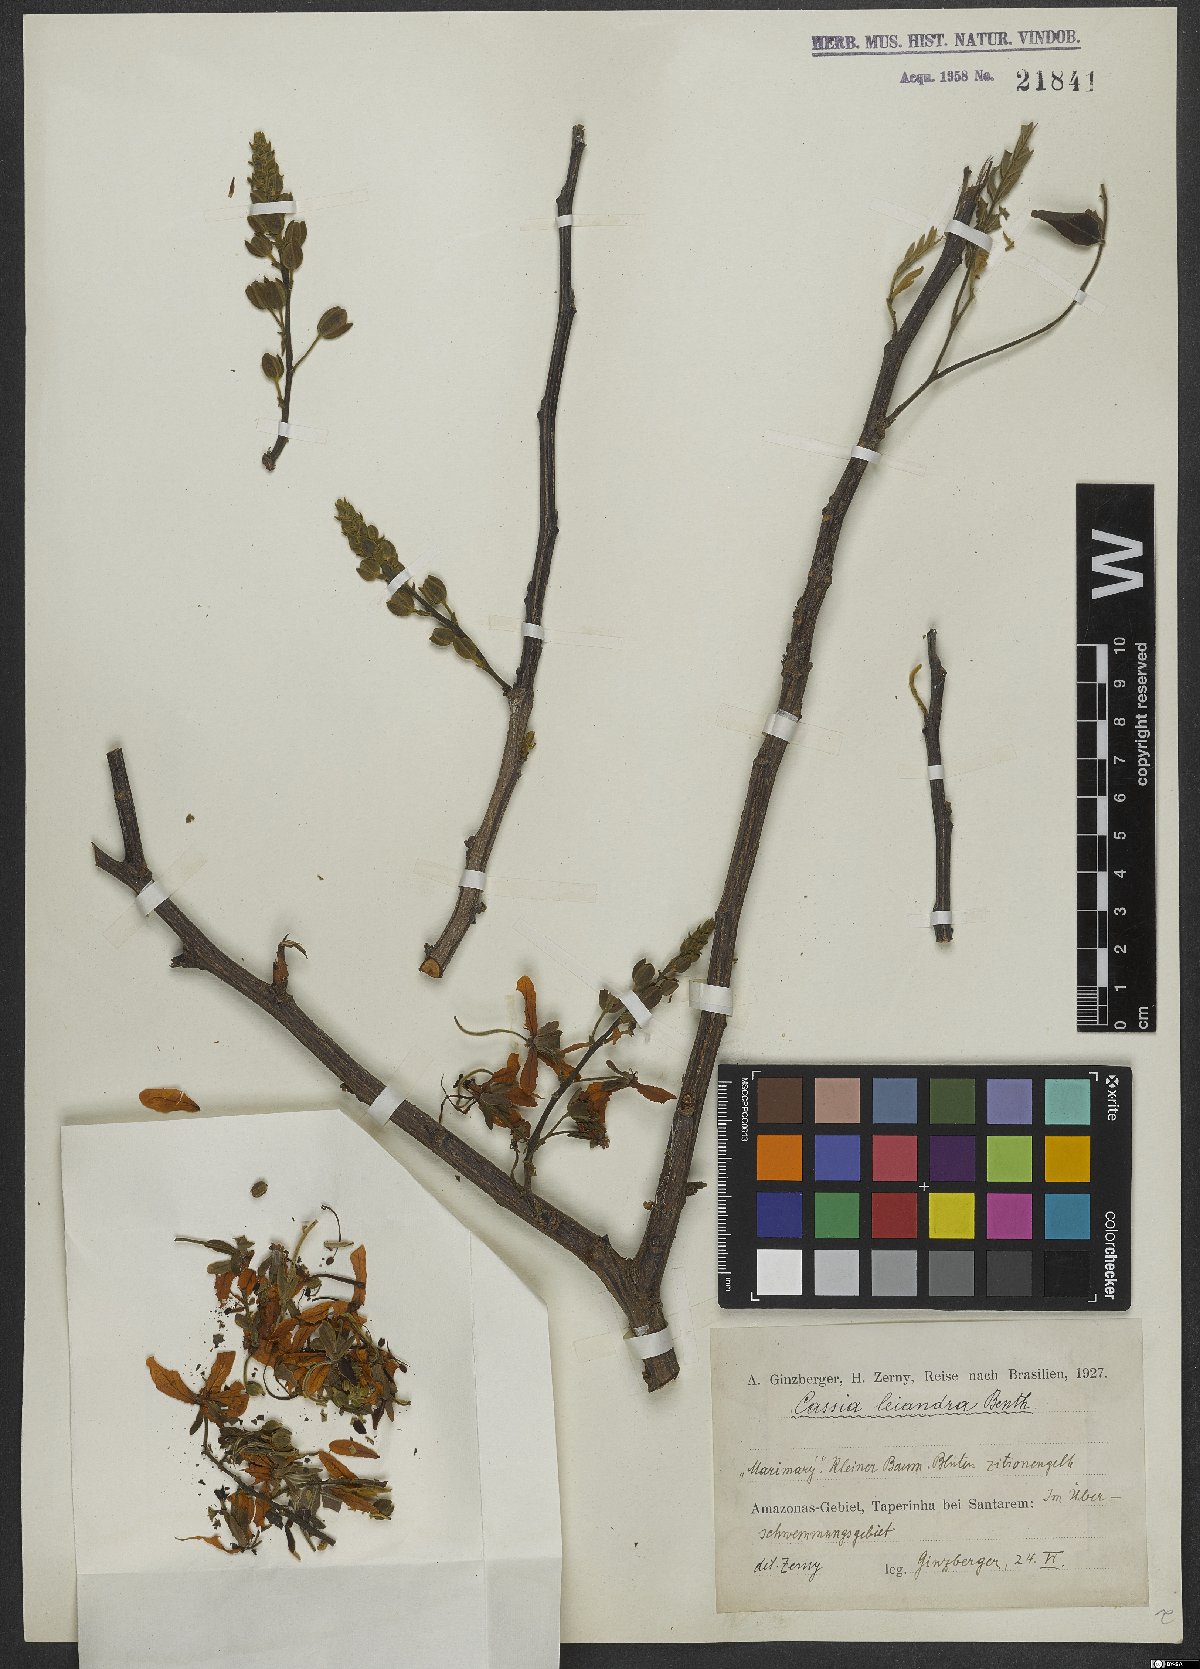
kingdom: Plantae
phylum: Tracheophyta
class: Magnoliopsida
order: Fabales
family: Fabaceae
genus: Cassia
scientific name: Cassia leiandra
